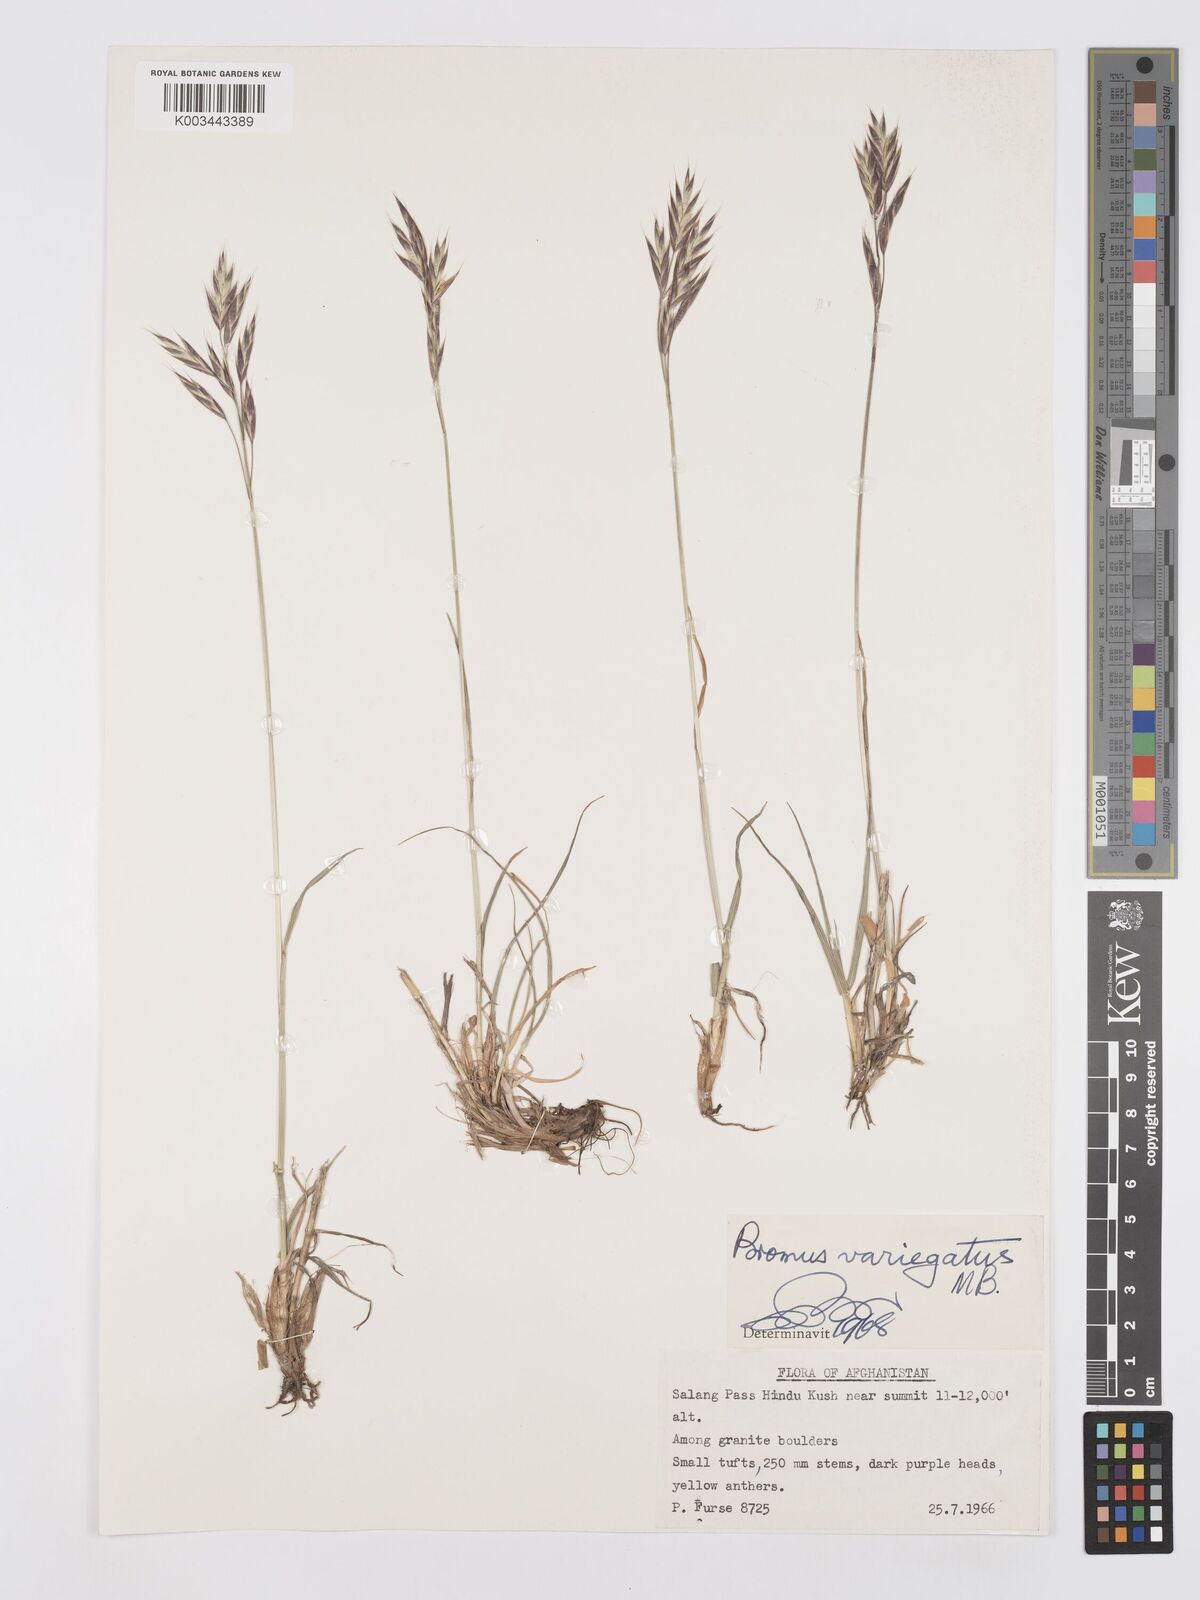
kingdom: Plantae
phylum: Tracheophyta
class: Liliopsida
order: Poales
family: Poaceae
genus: Bromus
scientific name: Bromus variegatus
